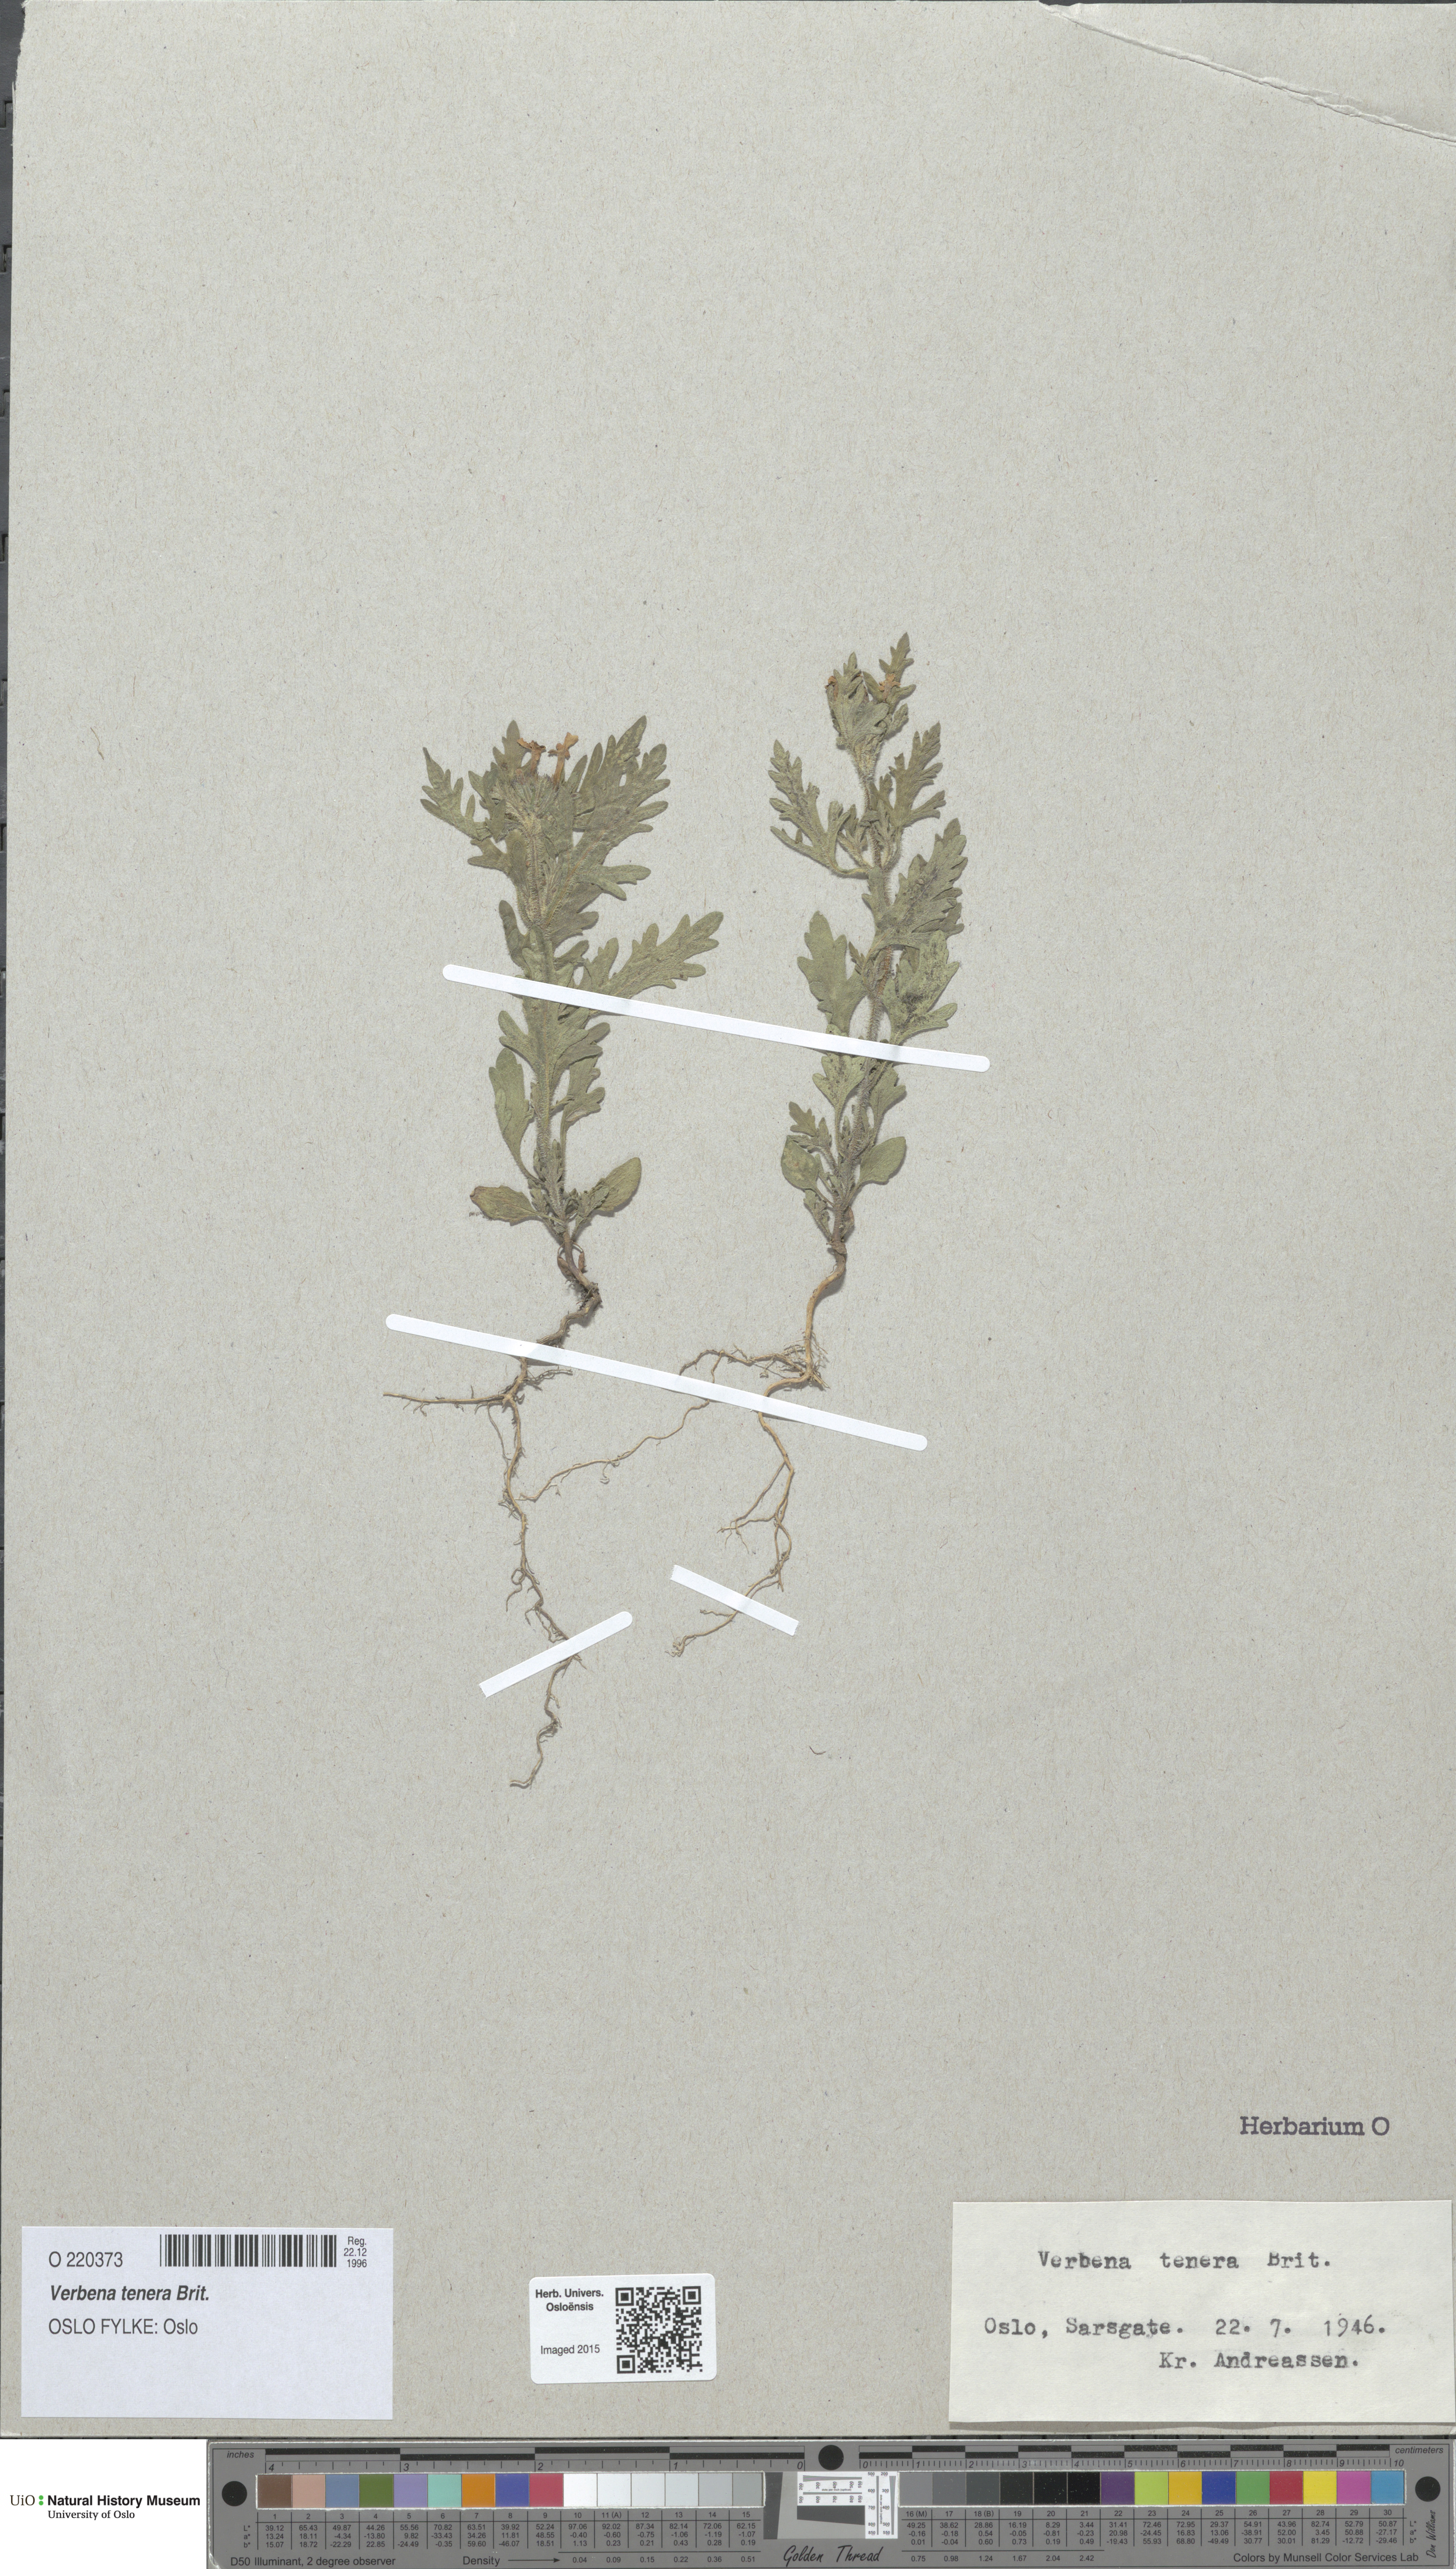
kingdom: Plantae
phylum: Tracheophyta
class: Magnoliopsida
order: Lamiales
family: Verbenaceae
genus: Verbena
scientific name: Verbena tenera
